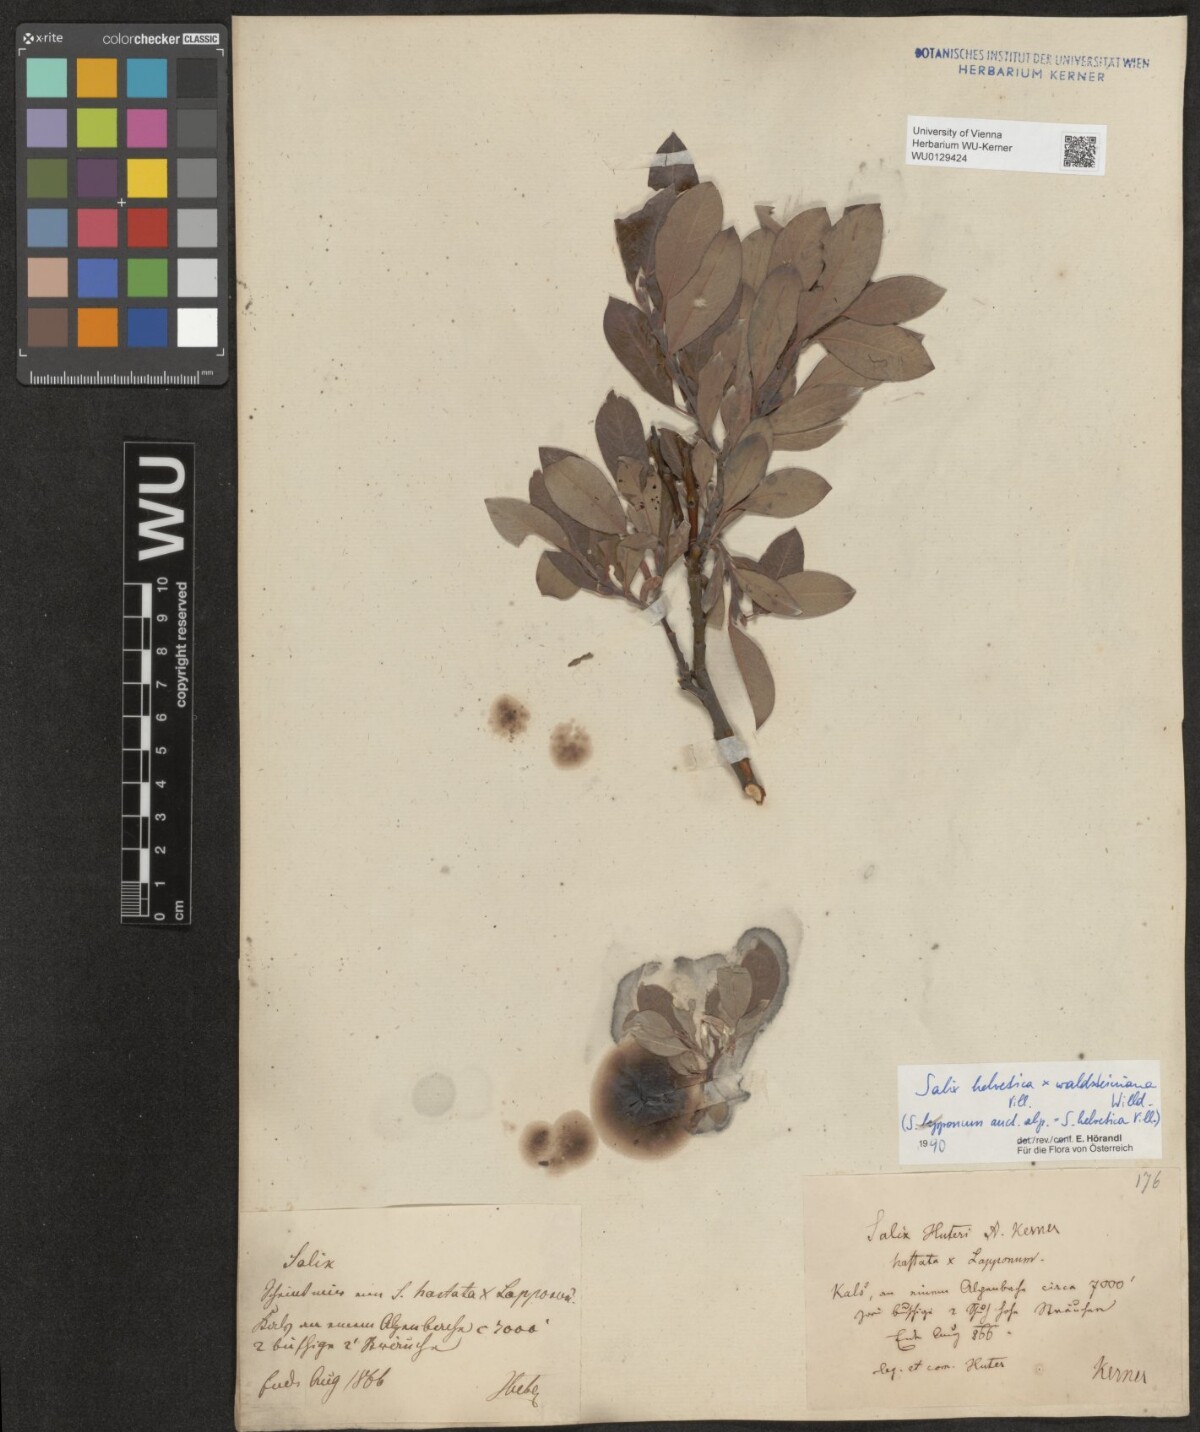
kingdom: Plantae
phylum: Tracheophyta
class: Magnoliopsida
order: Malpighiales
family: Salicaceae
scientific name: Salicaceae
